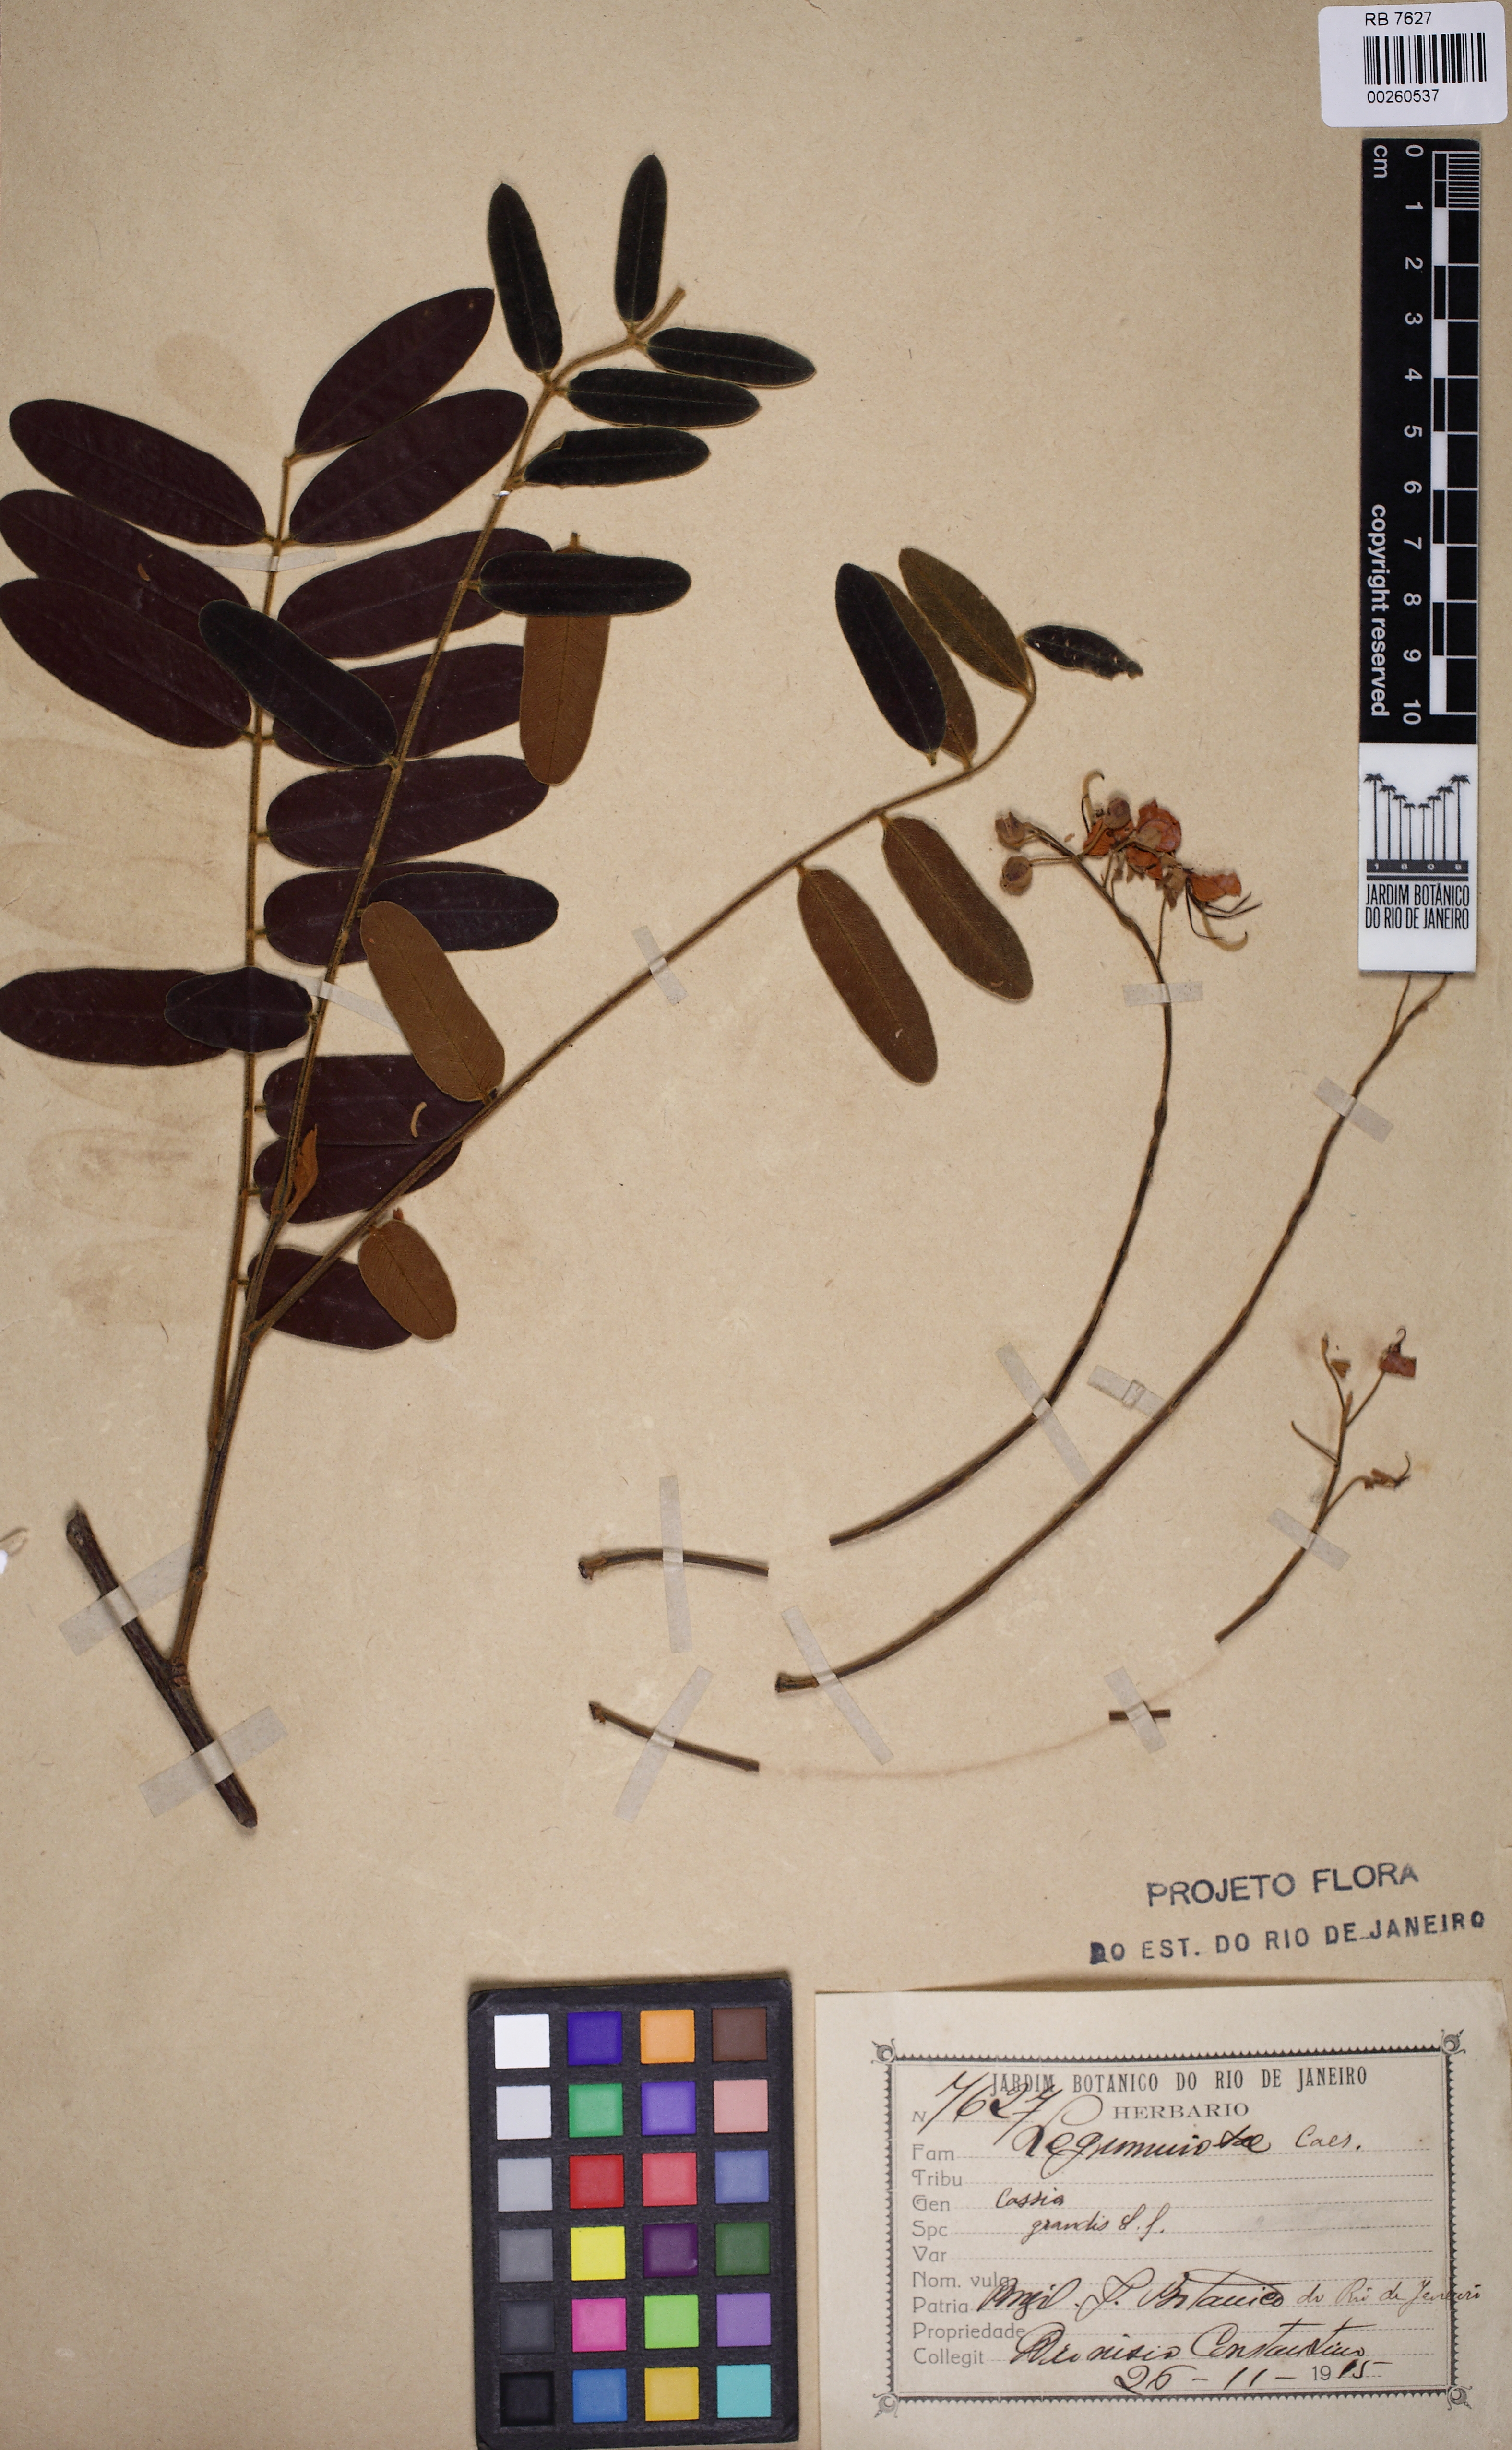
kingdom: Plantae
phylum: Tracheophyta
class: Magnoliopsida
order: Fabales
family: Fabaceae
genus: Cassia
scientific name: Cassia grandis
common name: Appleblossom cassia
